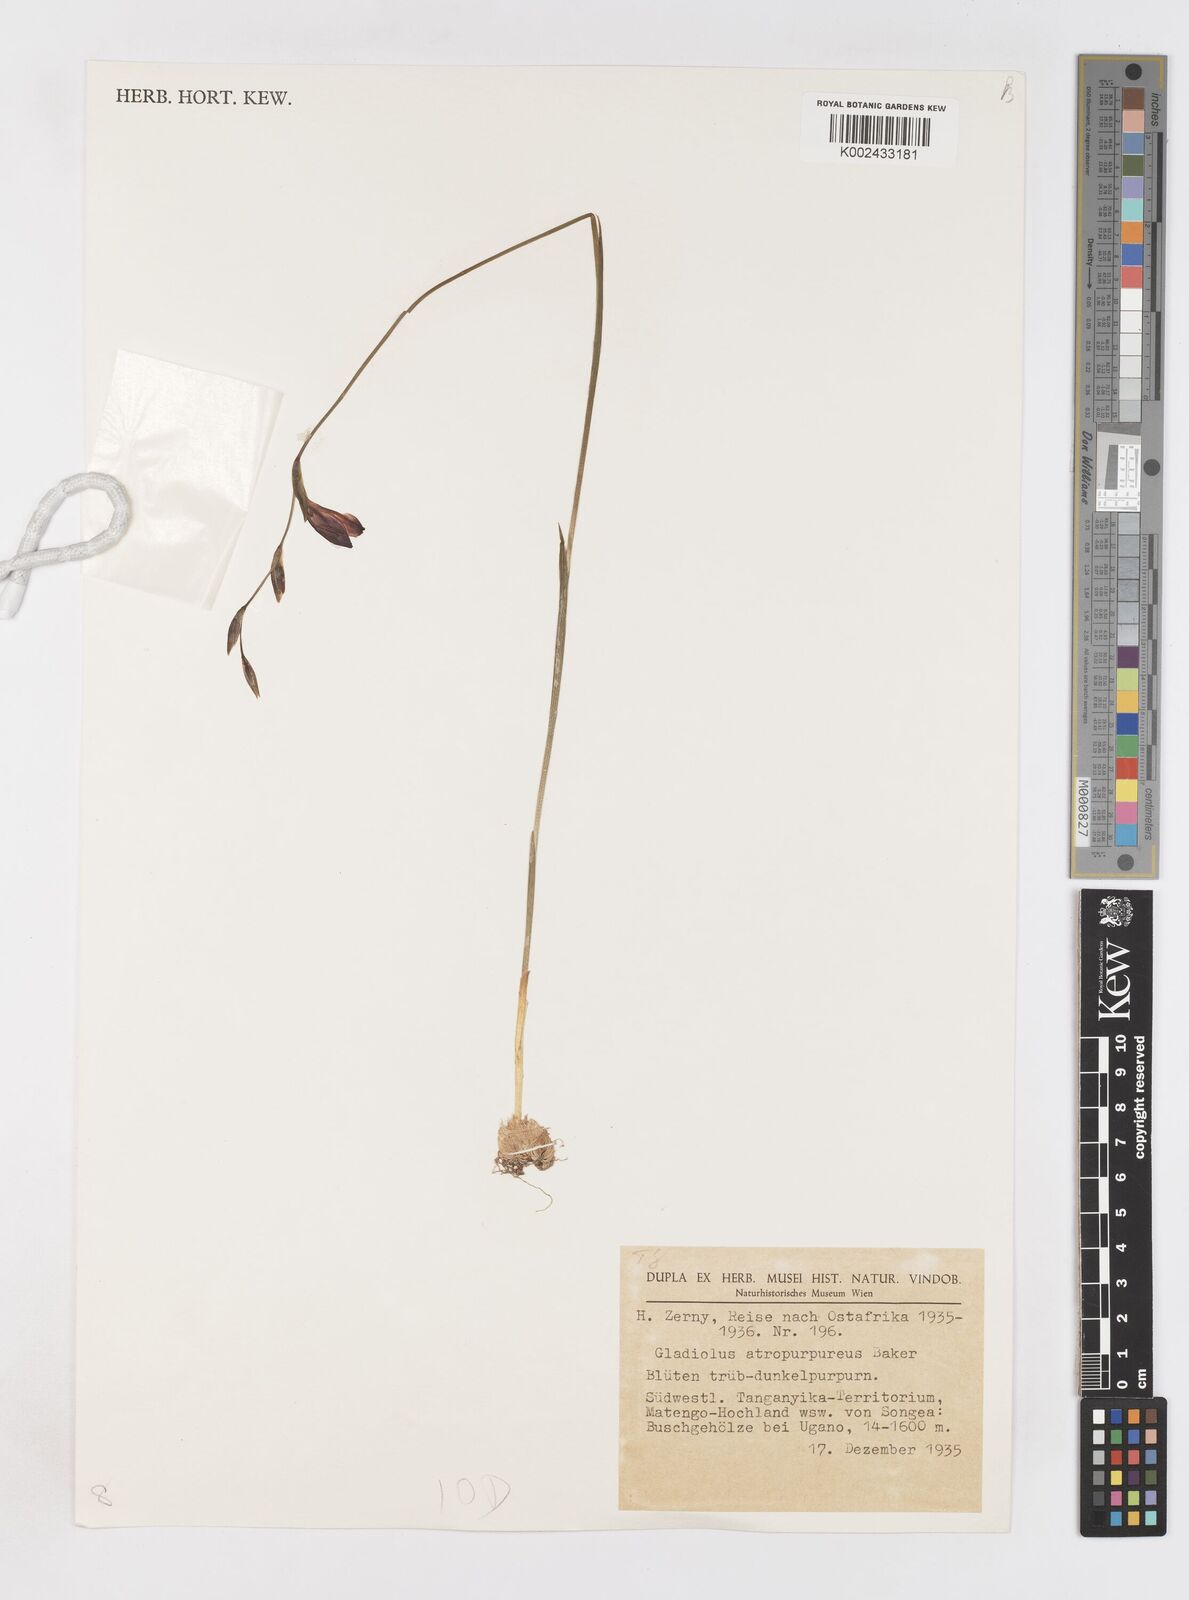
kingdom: Plantae
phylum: Tracheophyta
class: Liliopsida
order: Asparagales
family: Iridaceae
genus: Gladiolus
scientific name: Gladiolus atropurpureus
